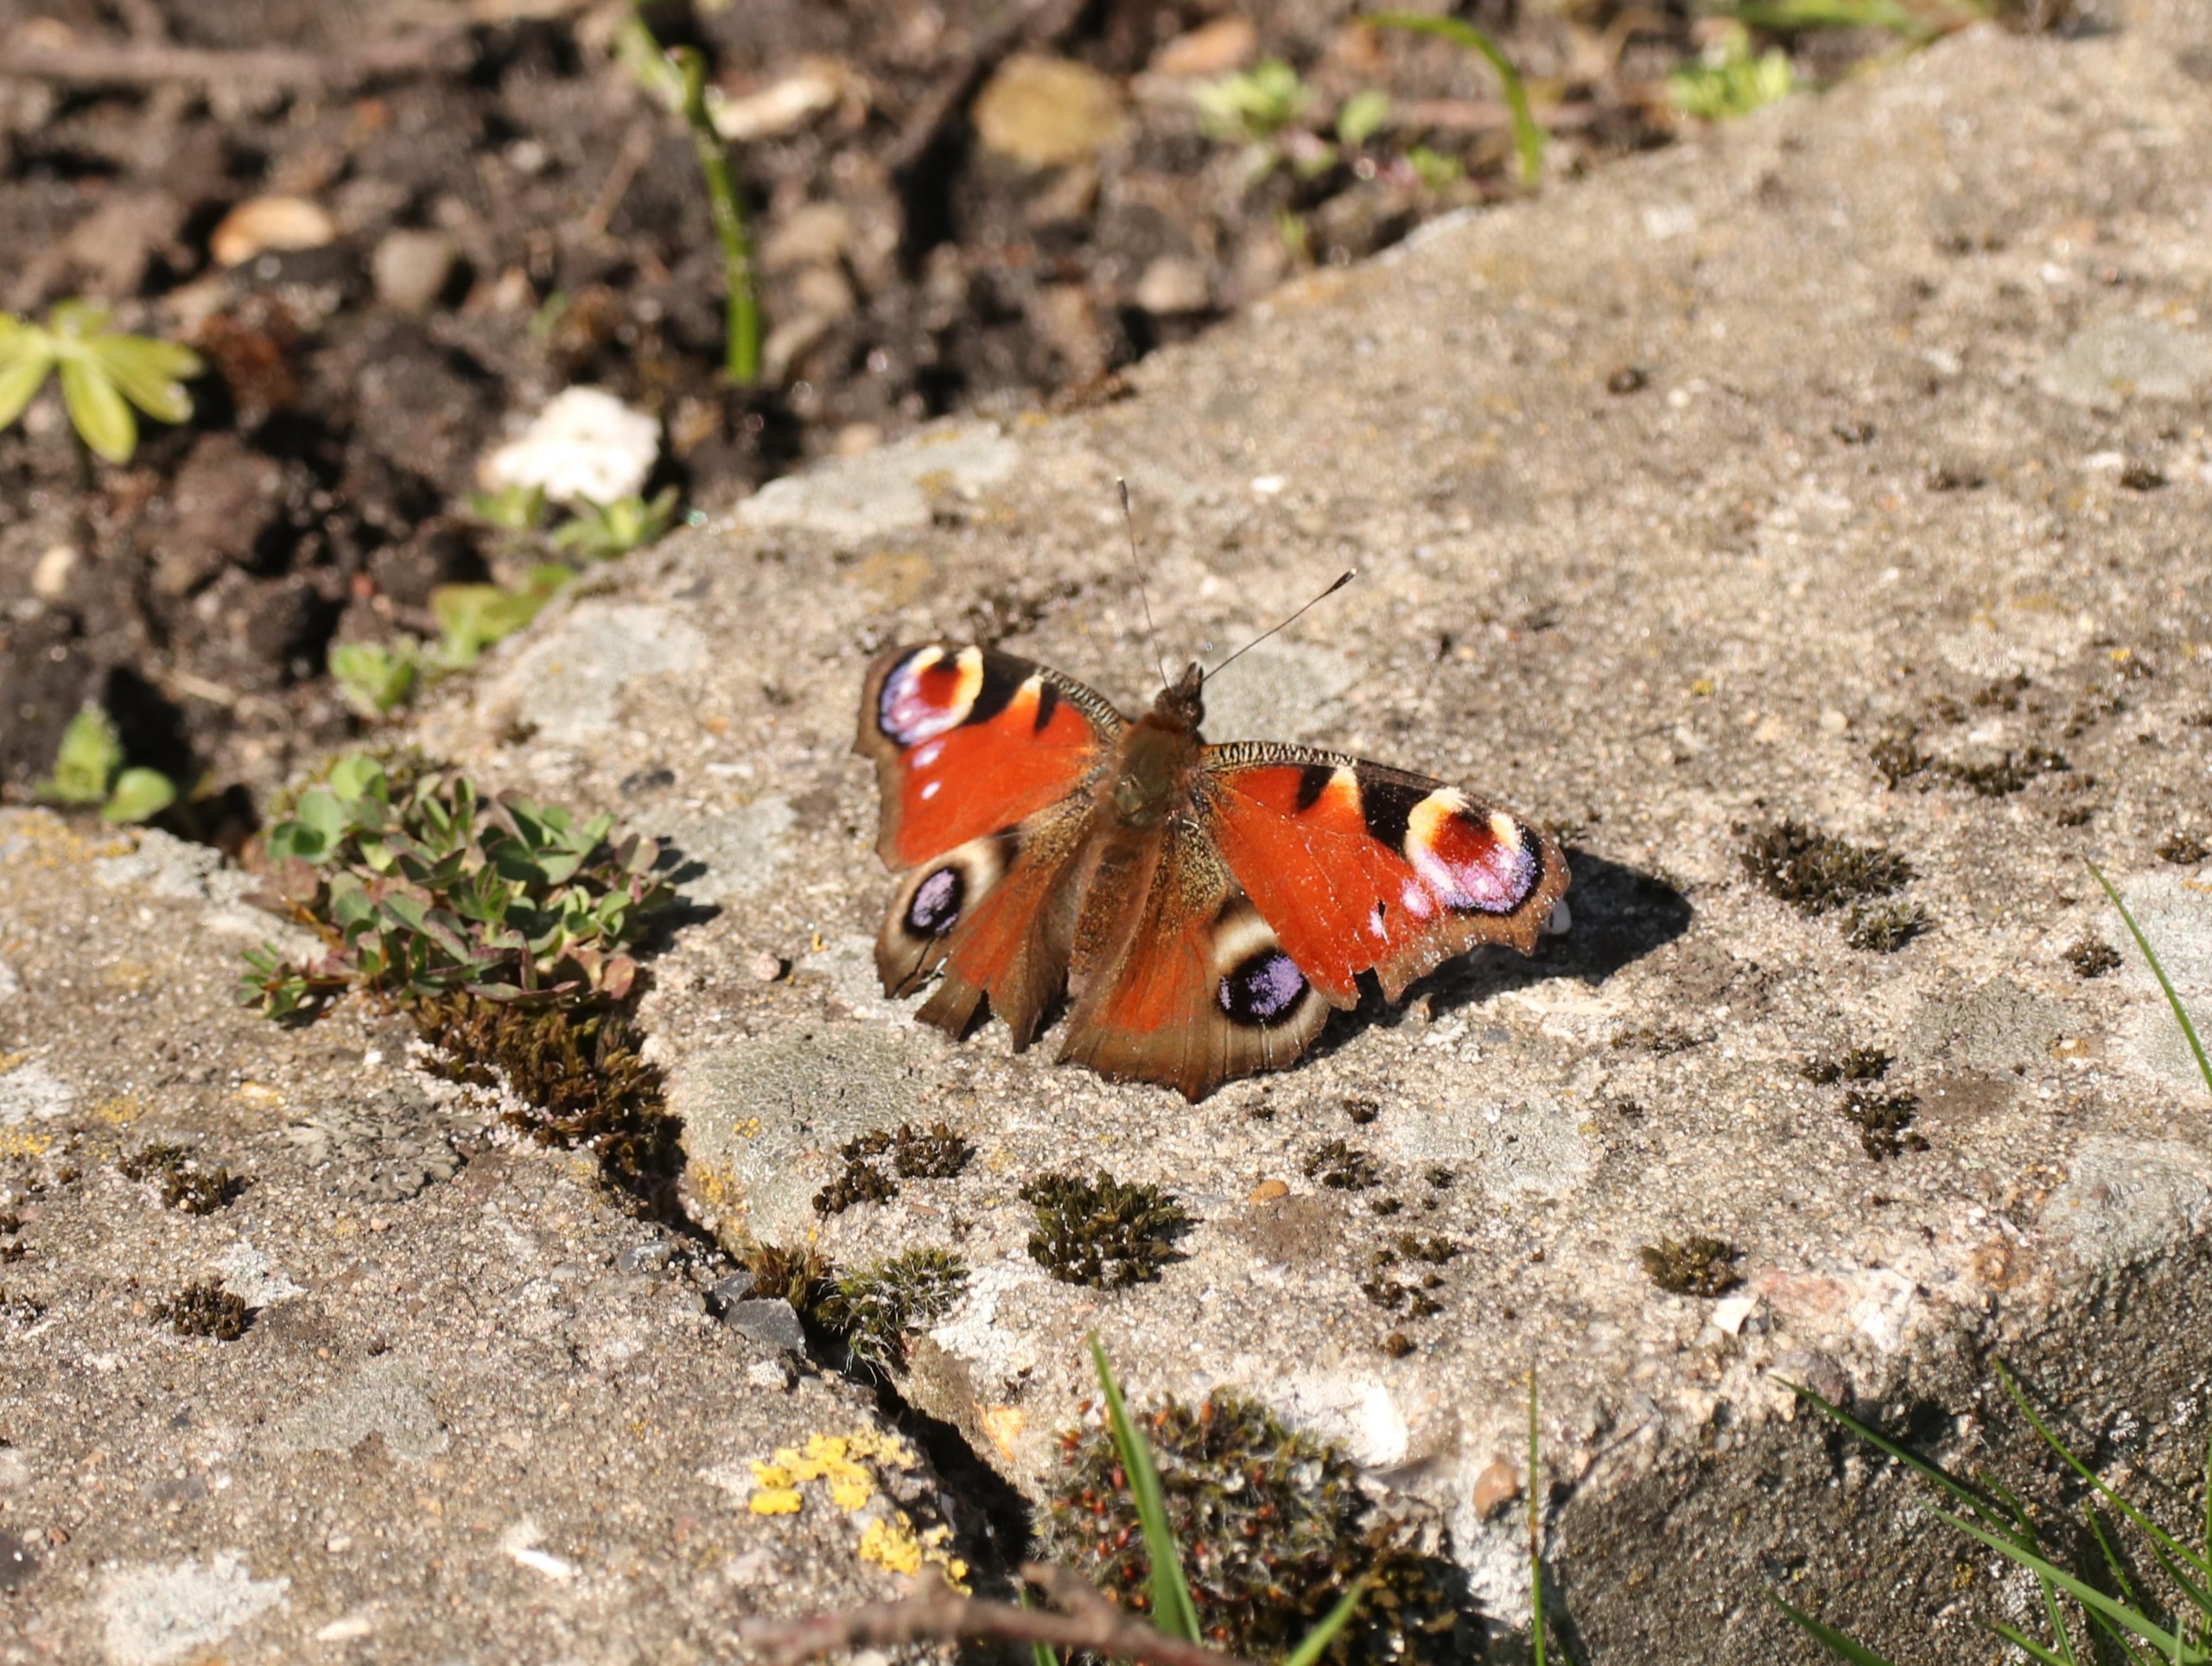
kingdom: Animalia
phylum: Arthropoda
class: Insecta
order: Lepidoptera
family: Nymphalidae
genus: Aglais
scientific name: Aglais io
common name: Dagpåfugleøje
